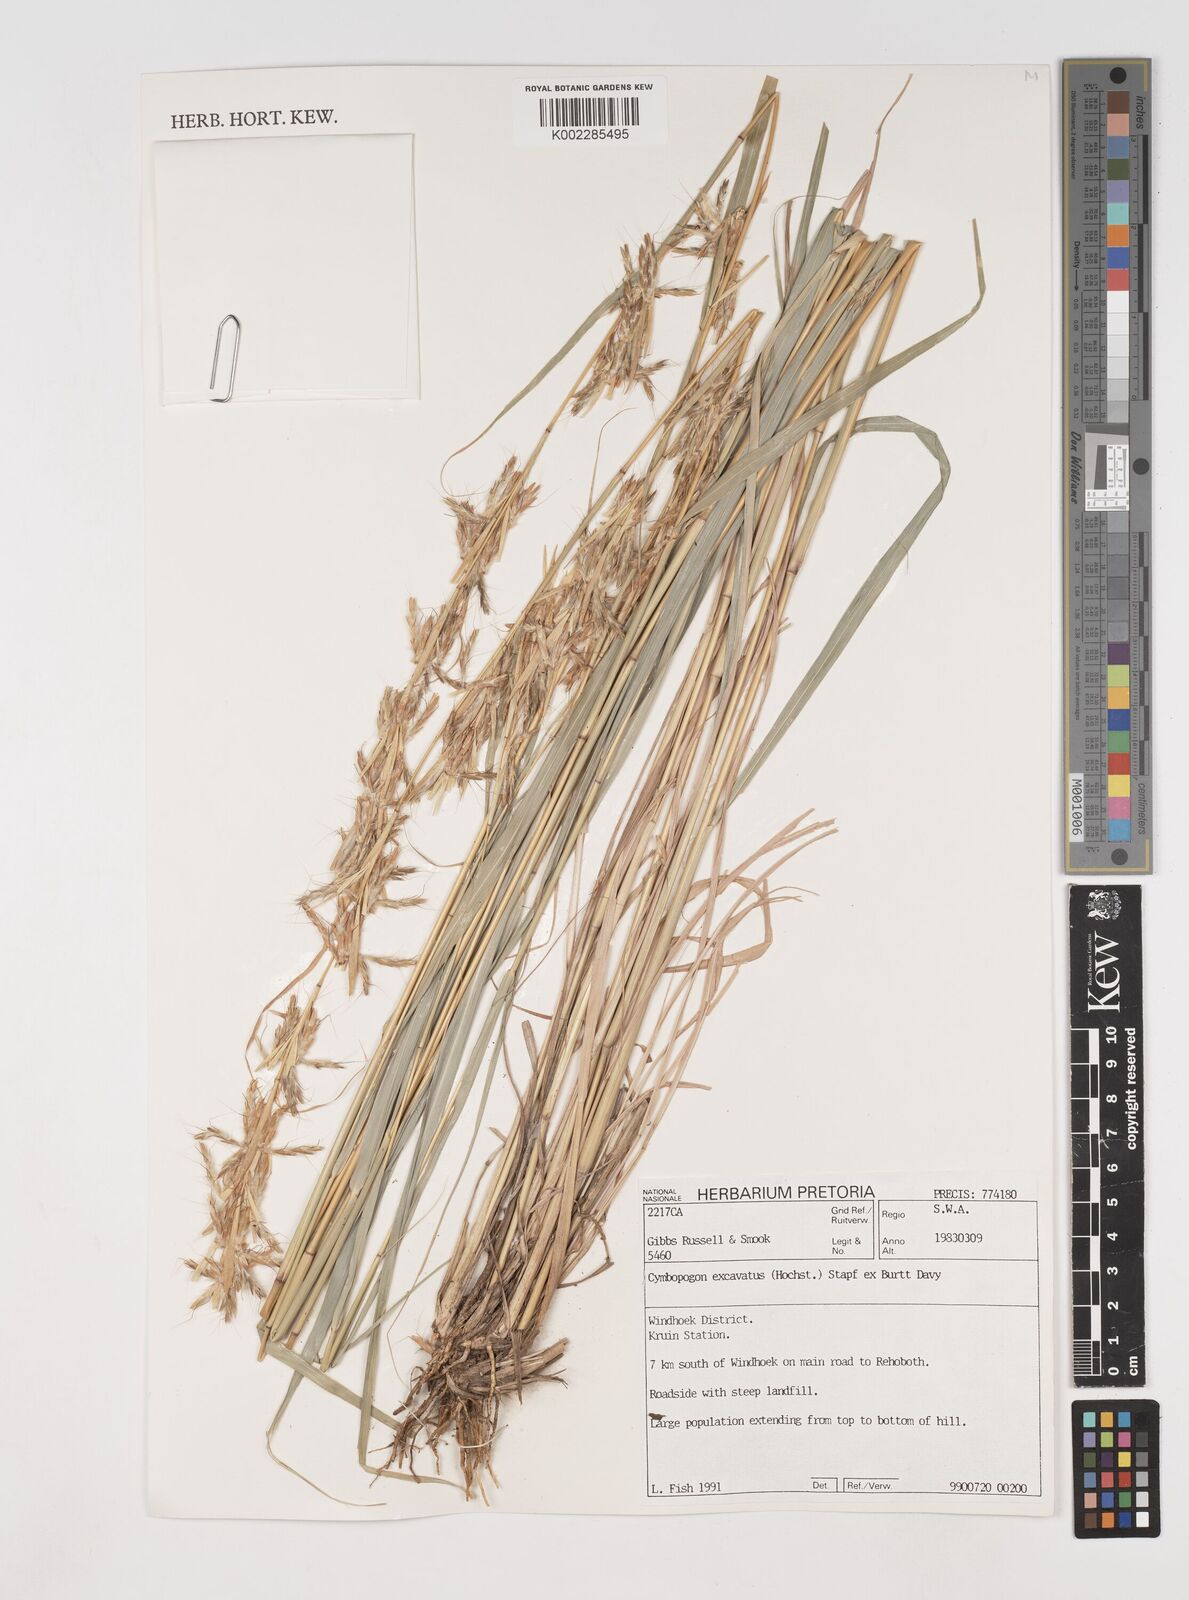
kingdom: Plantae
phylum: Tracheophyta
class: Liliopsida
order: Poales
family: Poaceae
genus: Cymbopogon
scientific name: Cymbopogon caesius
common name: Kachi grass
